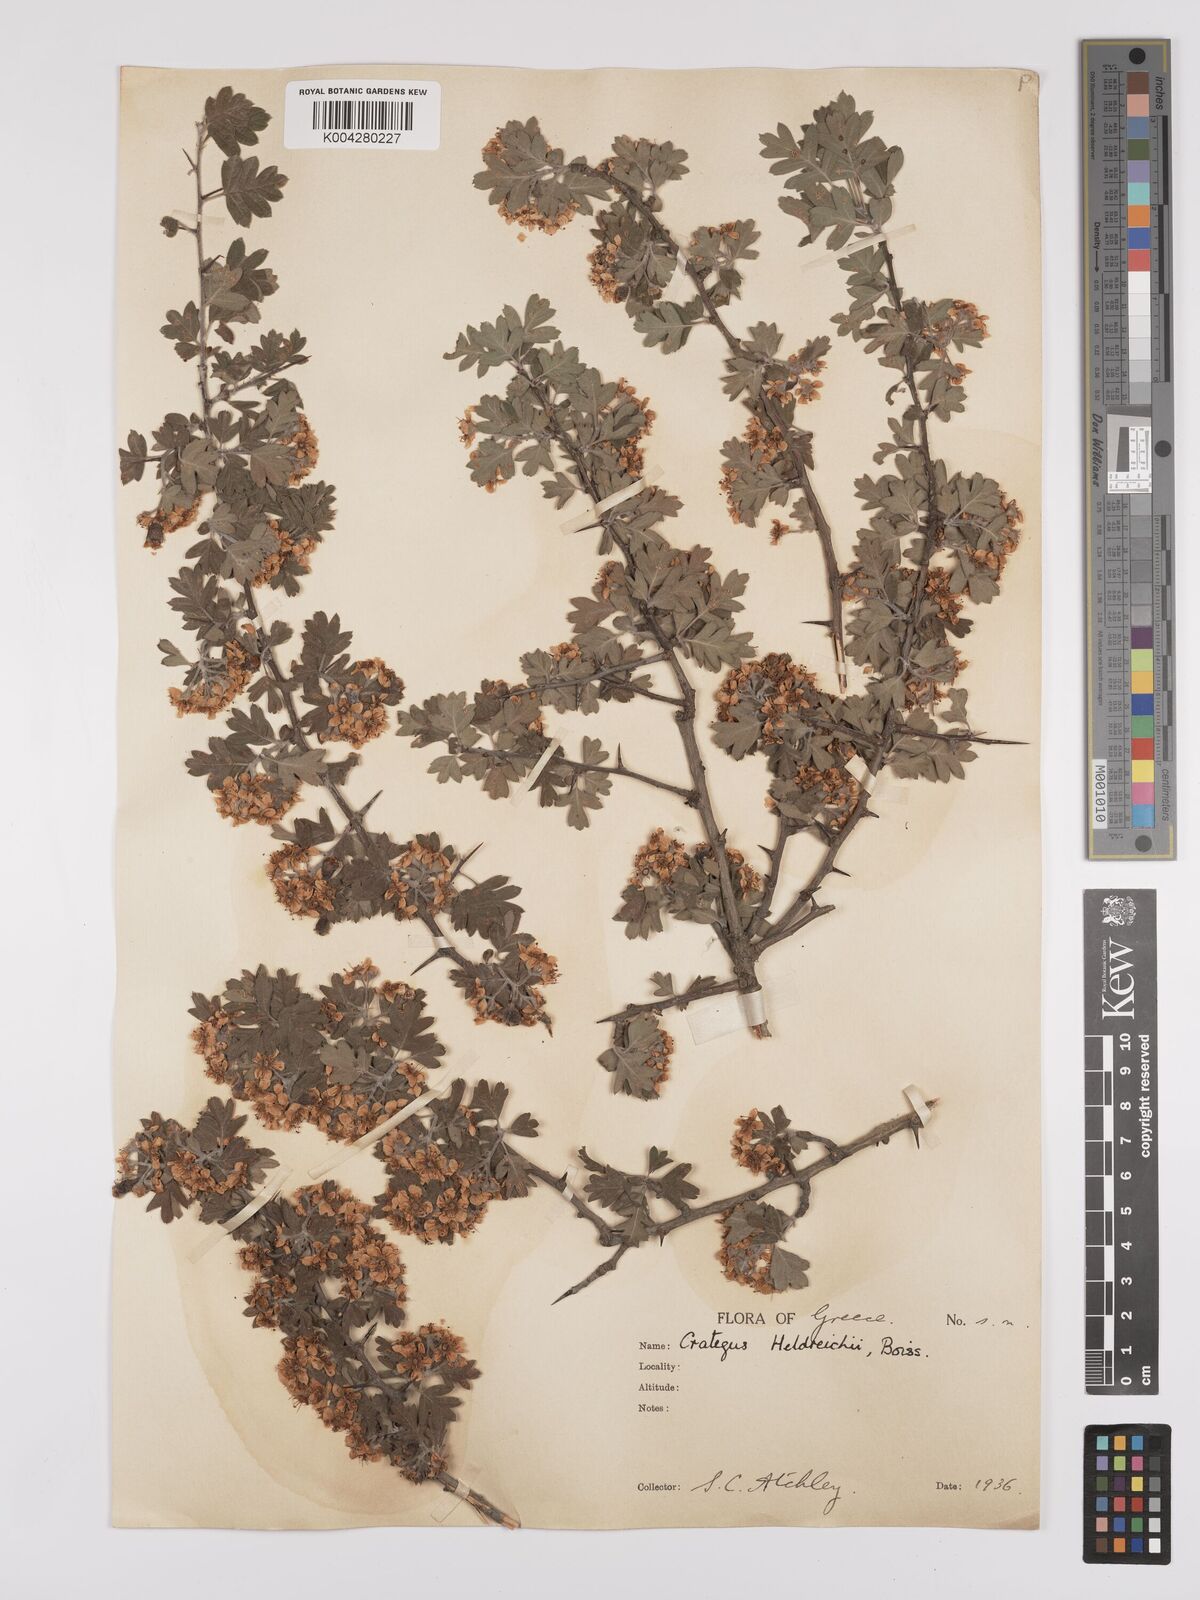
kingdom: Plantae
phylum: Tracheophyta
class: Magnoliopsida
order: Rosales
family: Rosaceae
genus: Crataegus
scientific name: Crataegus heldreichii
